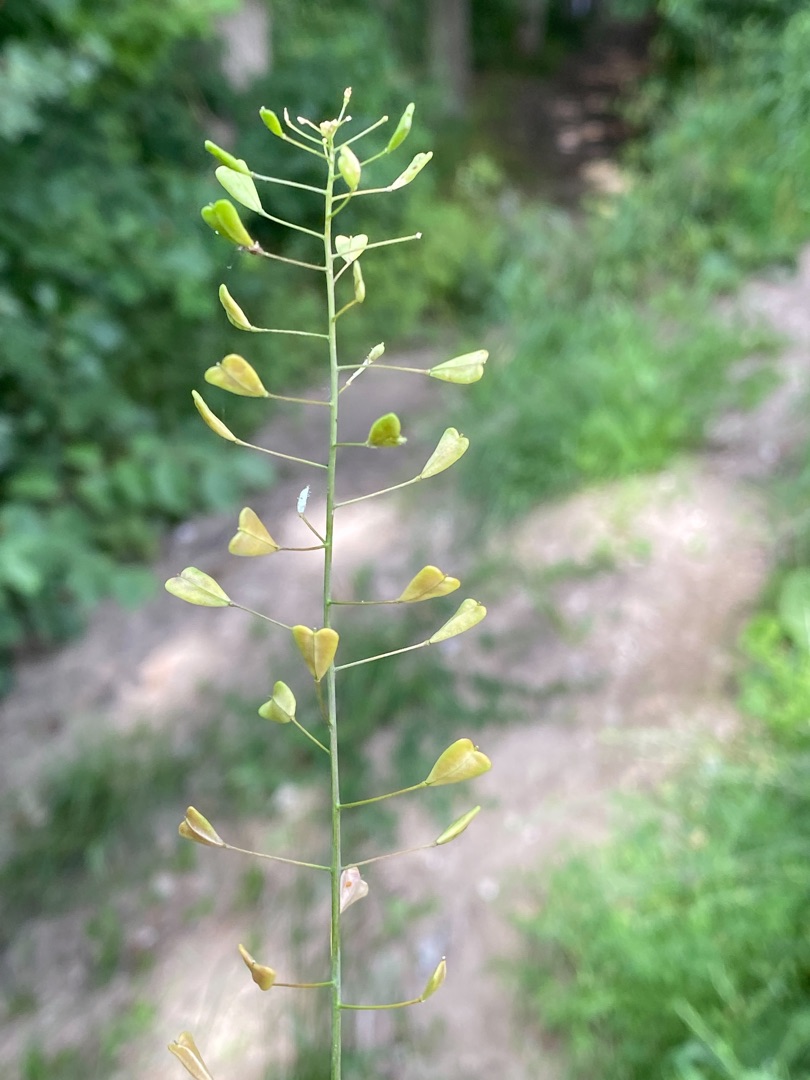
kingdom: Plantae
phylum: Tracheophyta
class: Magnoliopsida
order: Brassicales
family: Brassicaceae
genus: Capsella
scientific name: Capsella bursa-pastoris
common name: Hyrdetaske
